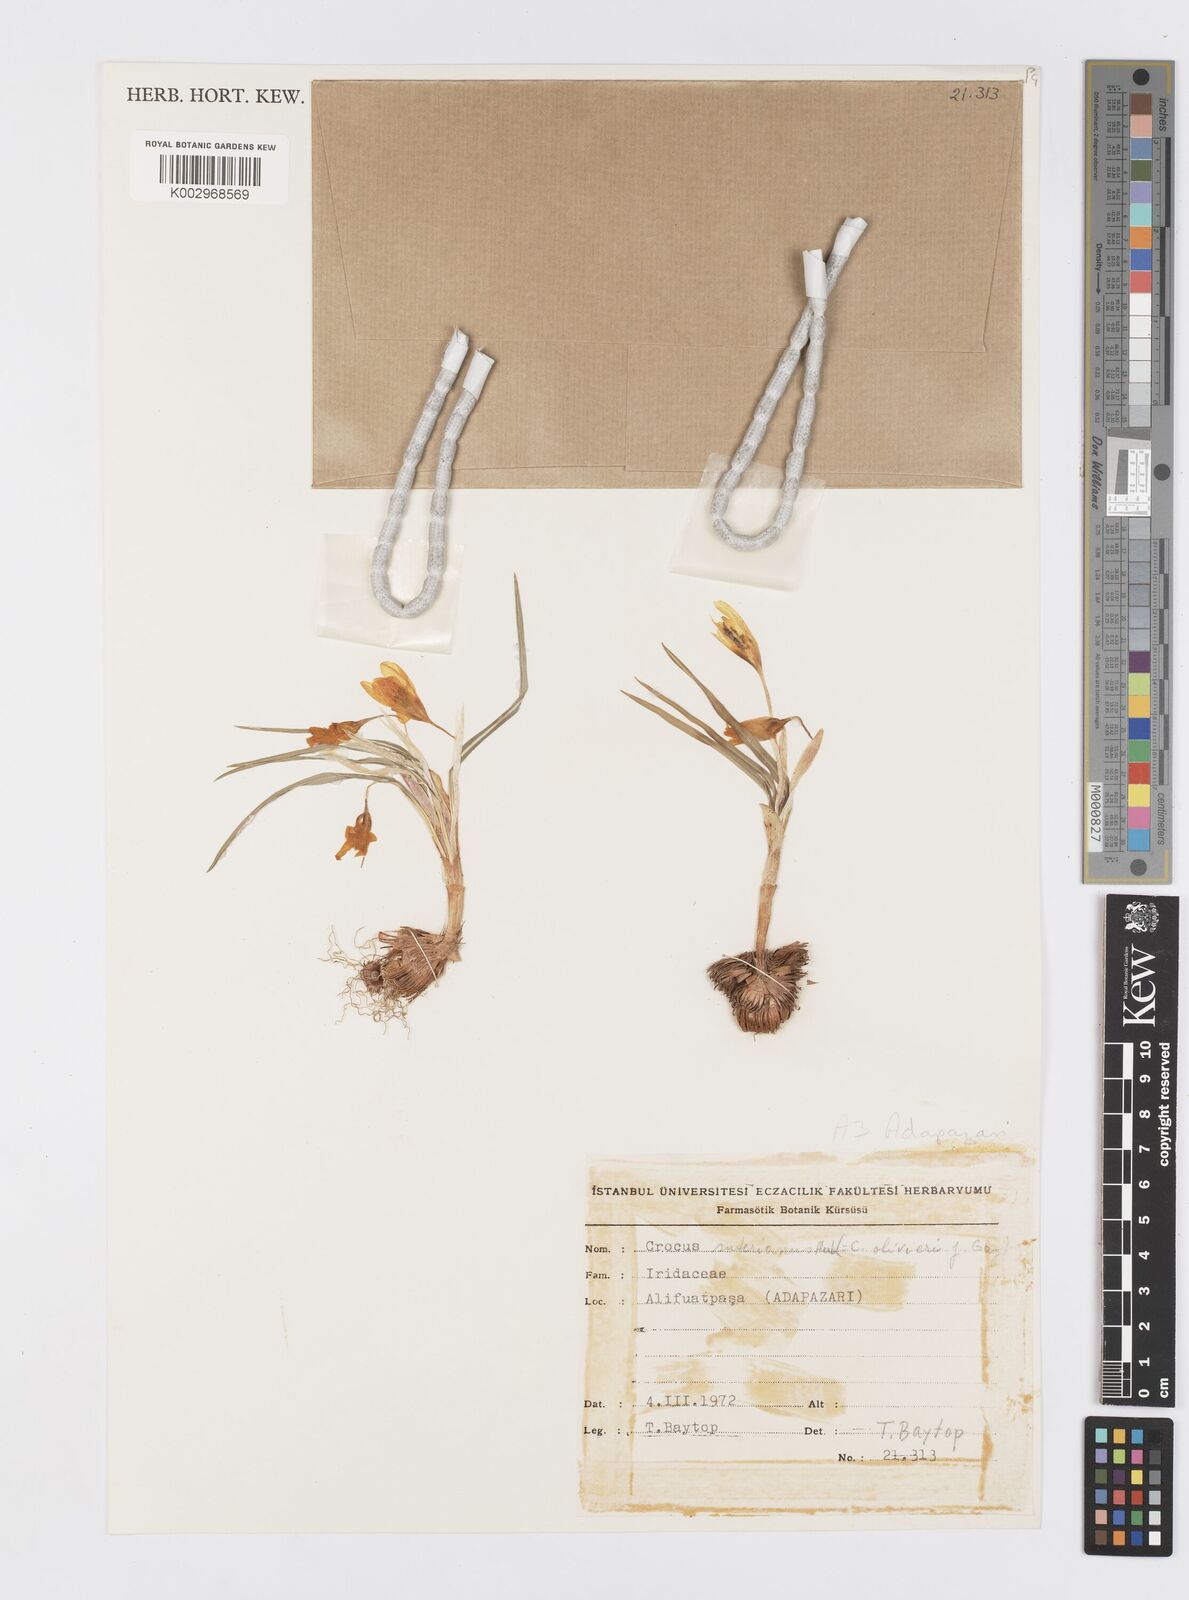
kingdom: Plantae
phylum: Tracheophyta
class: Liliopsida
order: Asparagales
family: Iridaceae
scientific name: Iridaceae
